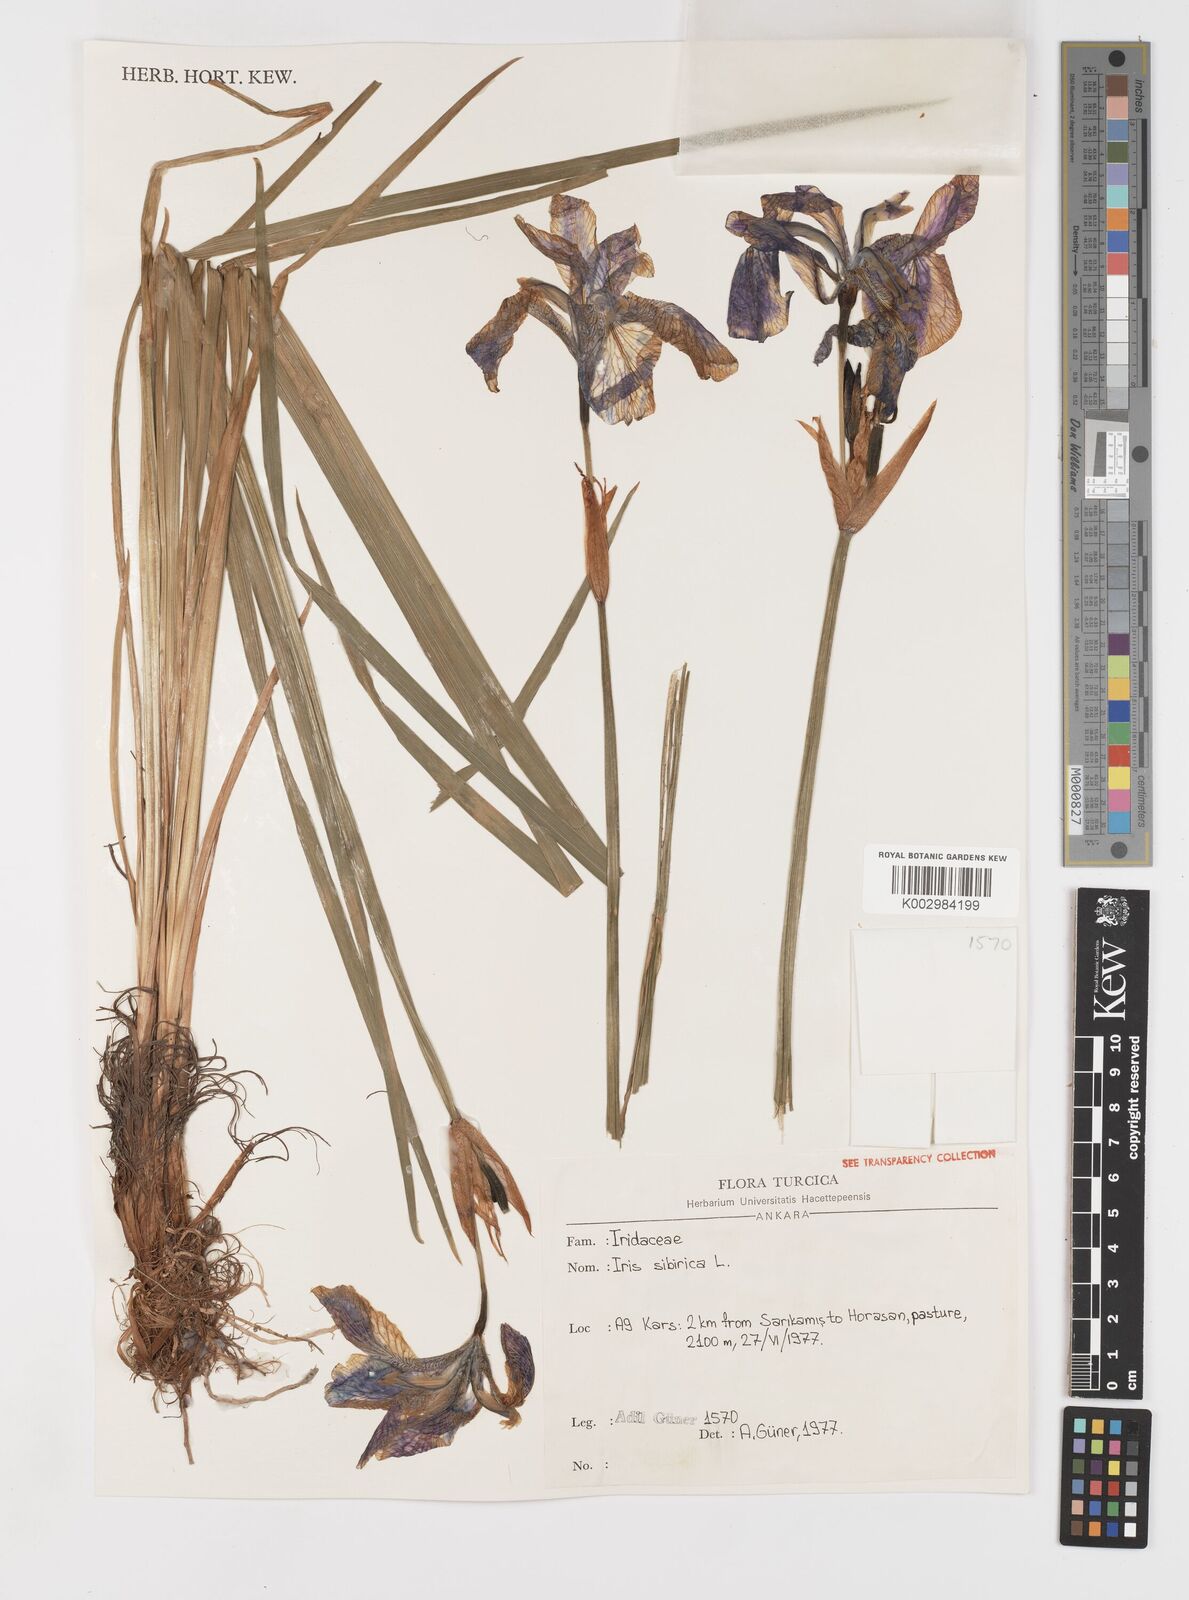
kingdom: Plantae
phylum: Tracheophyta
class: Liliopsida
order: Asparagales
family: Iridaceae
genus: Iris
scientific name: Iris sibirica
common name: Siberian iris
